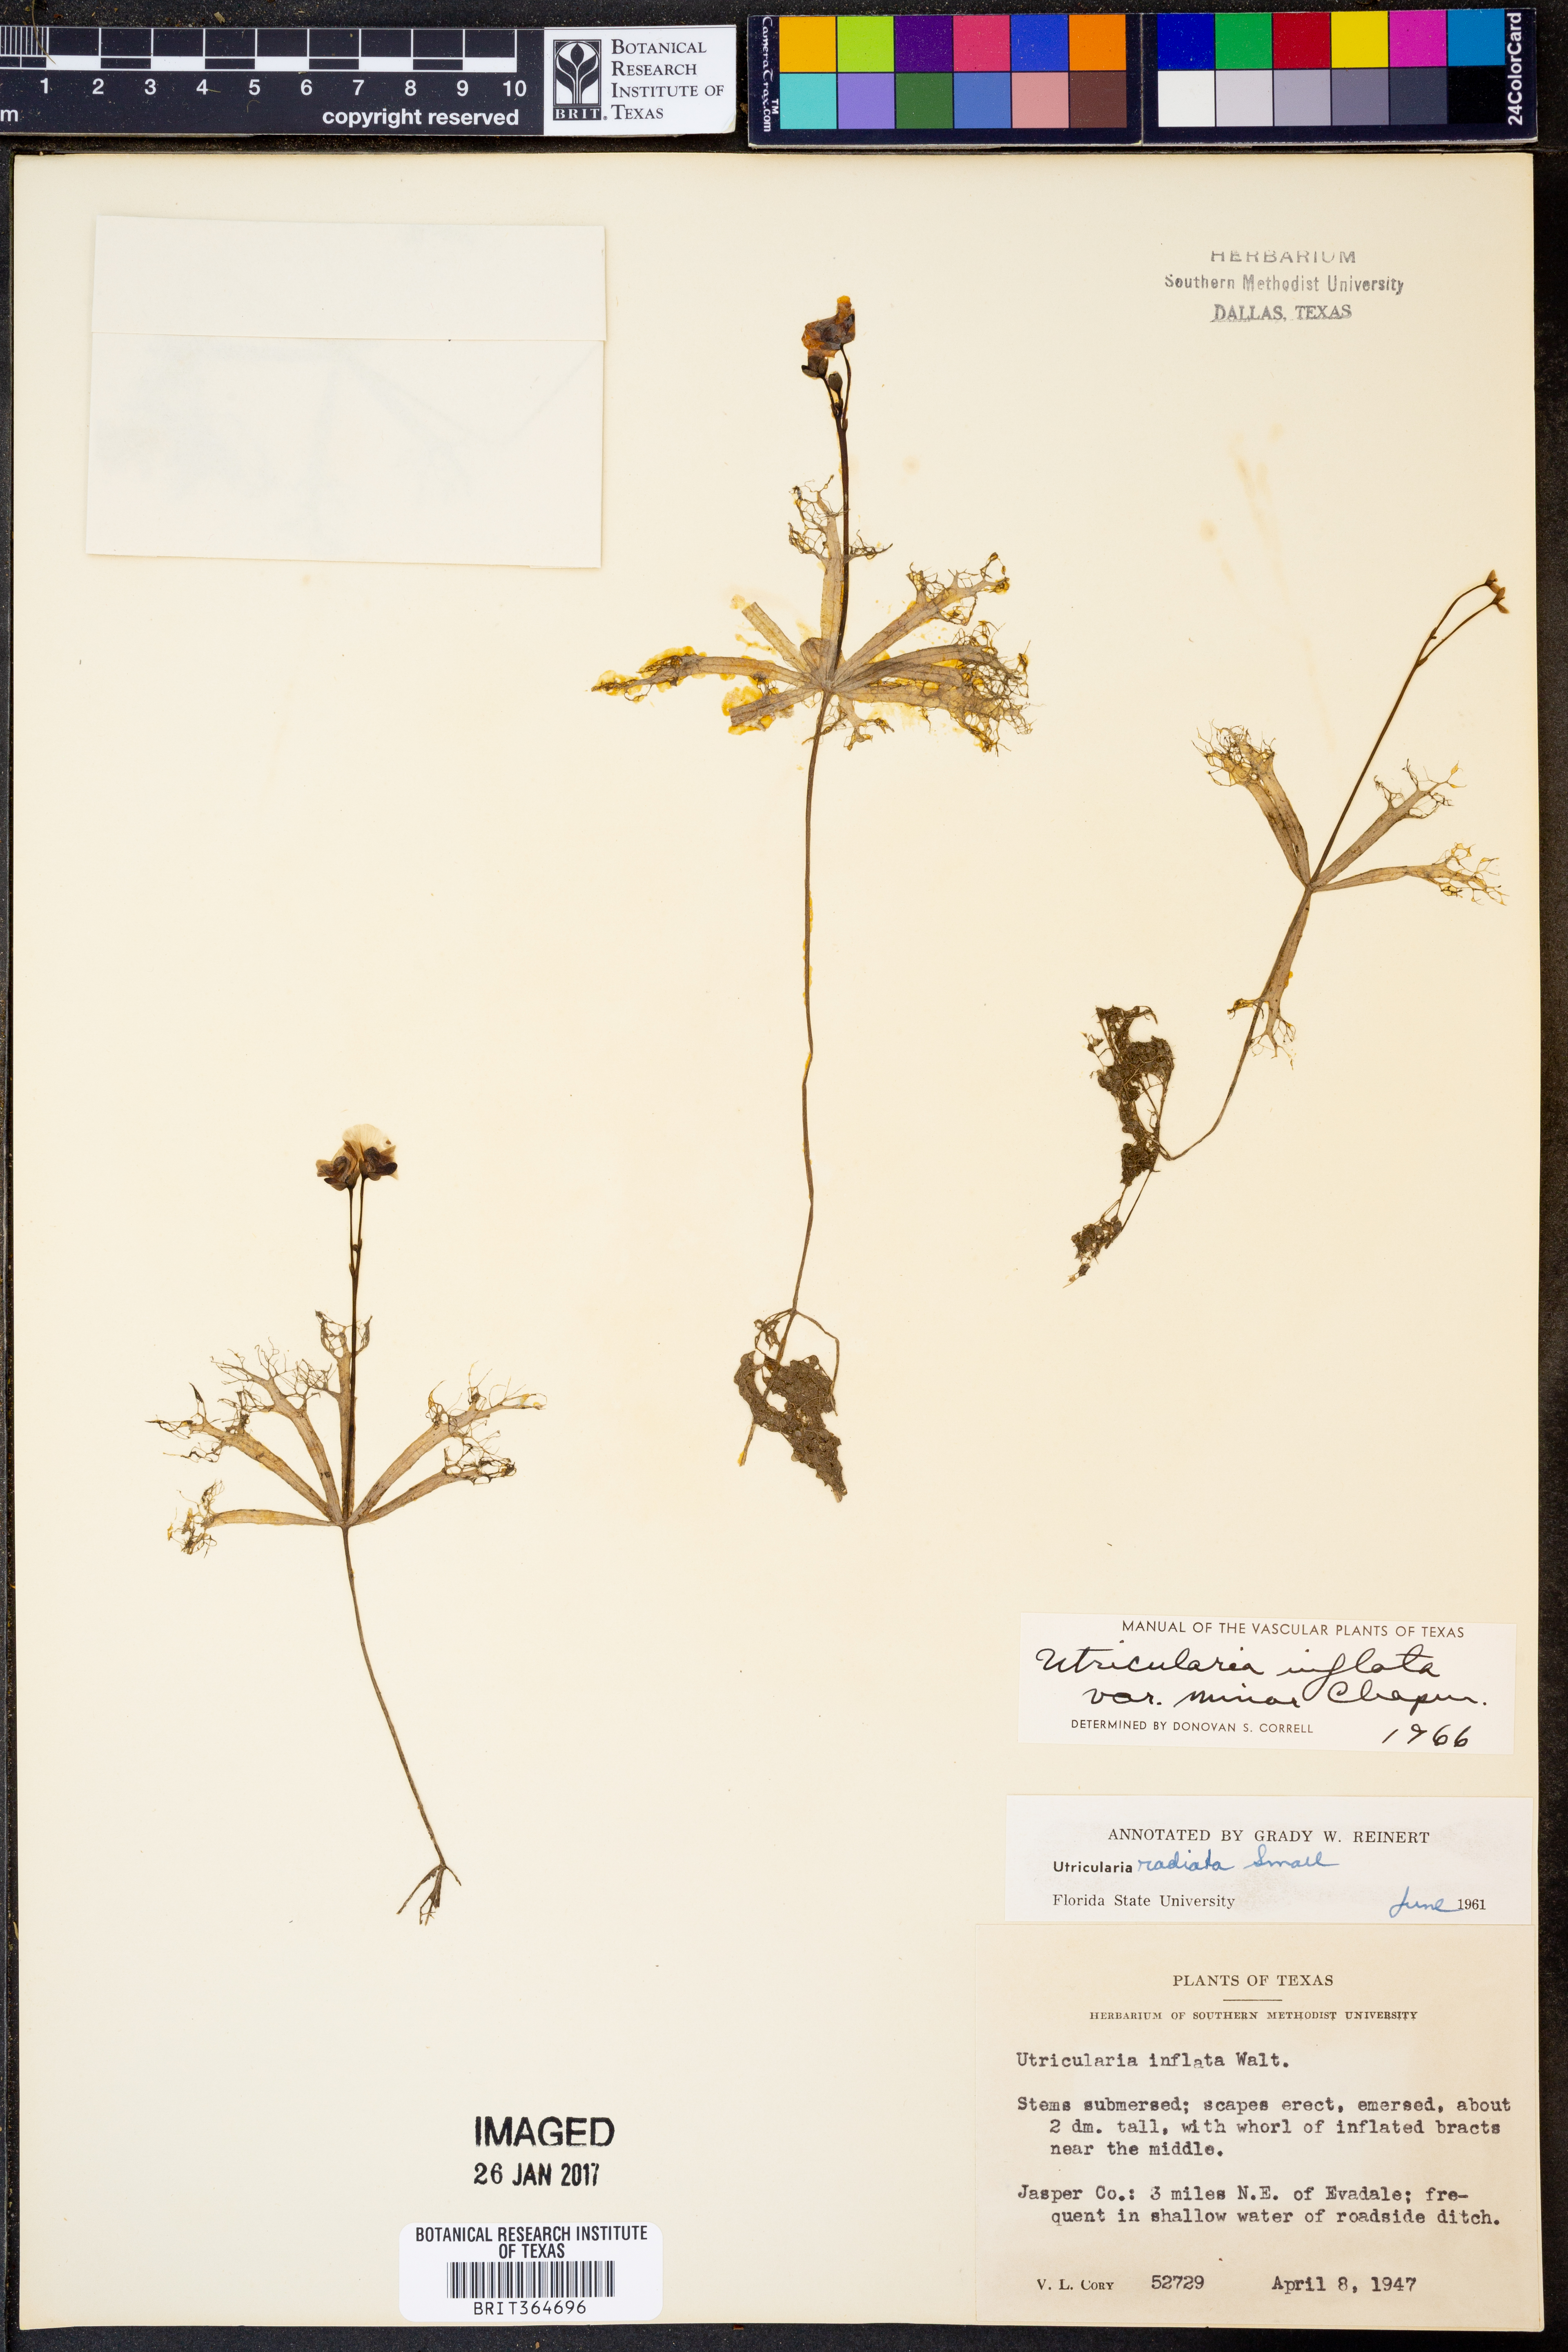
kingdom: Plantae
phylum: Tracheophyta
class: Magnoliopsida
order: Lamiales
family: Lentibulariaceae
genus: Utricularia
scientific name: Utricularia radiata
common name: Floating bladderwort
